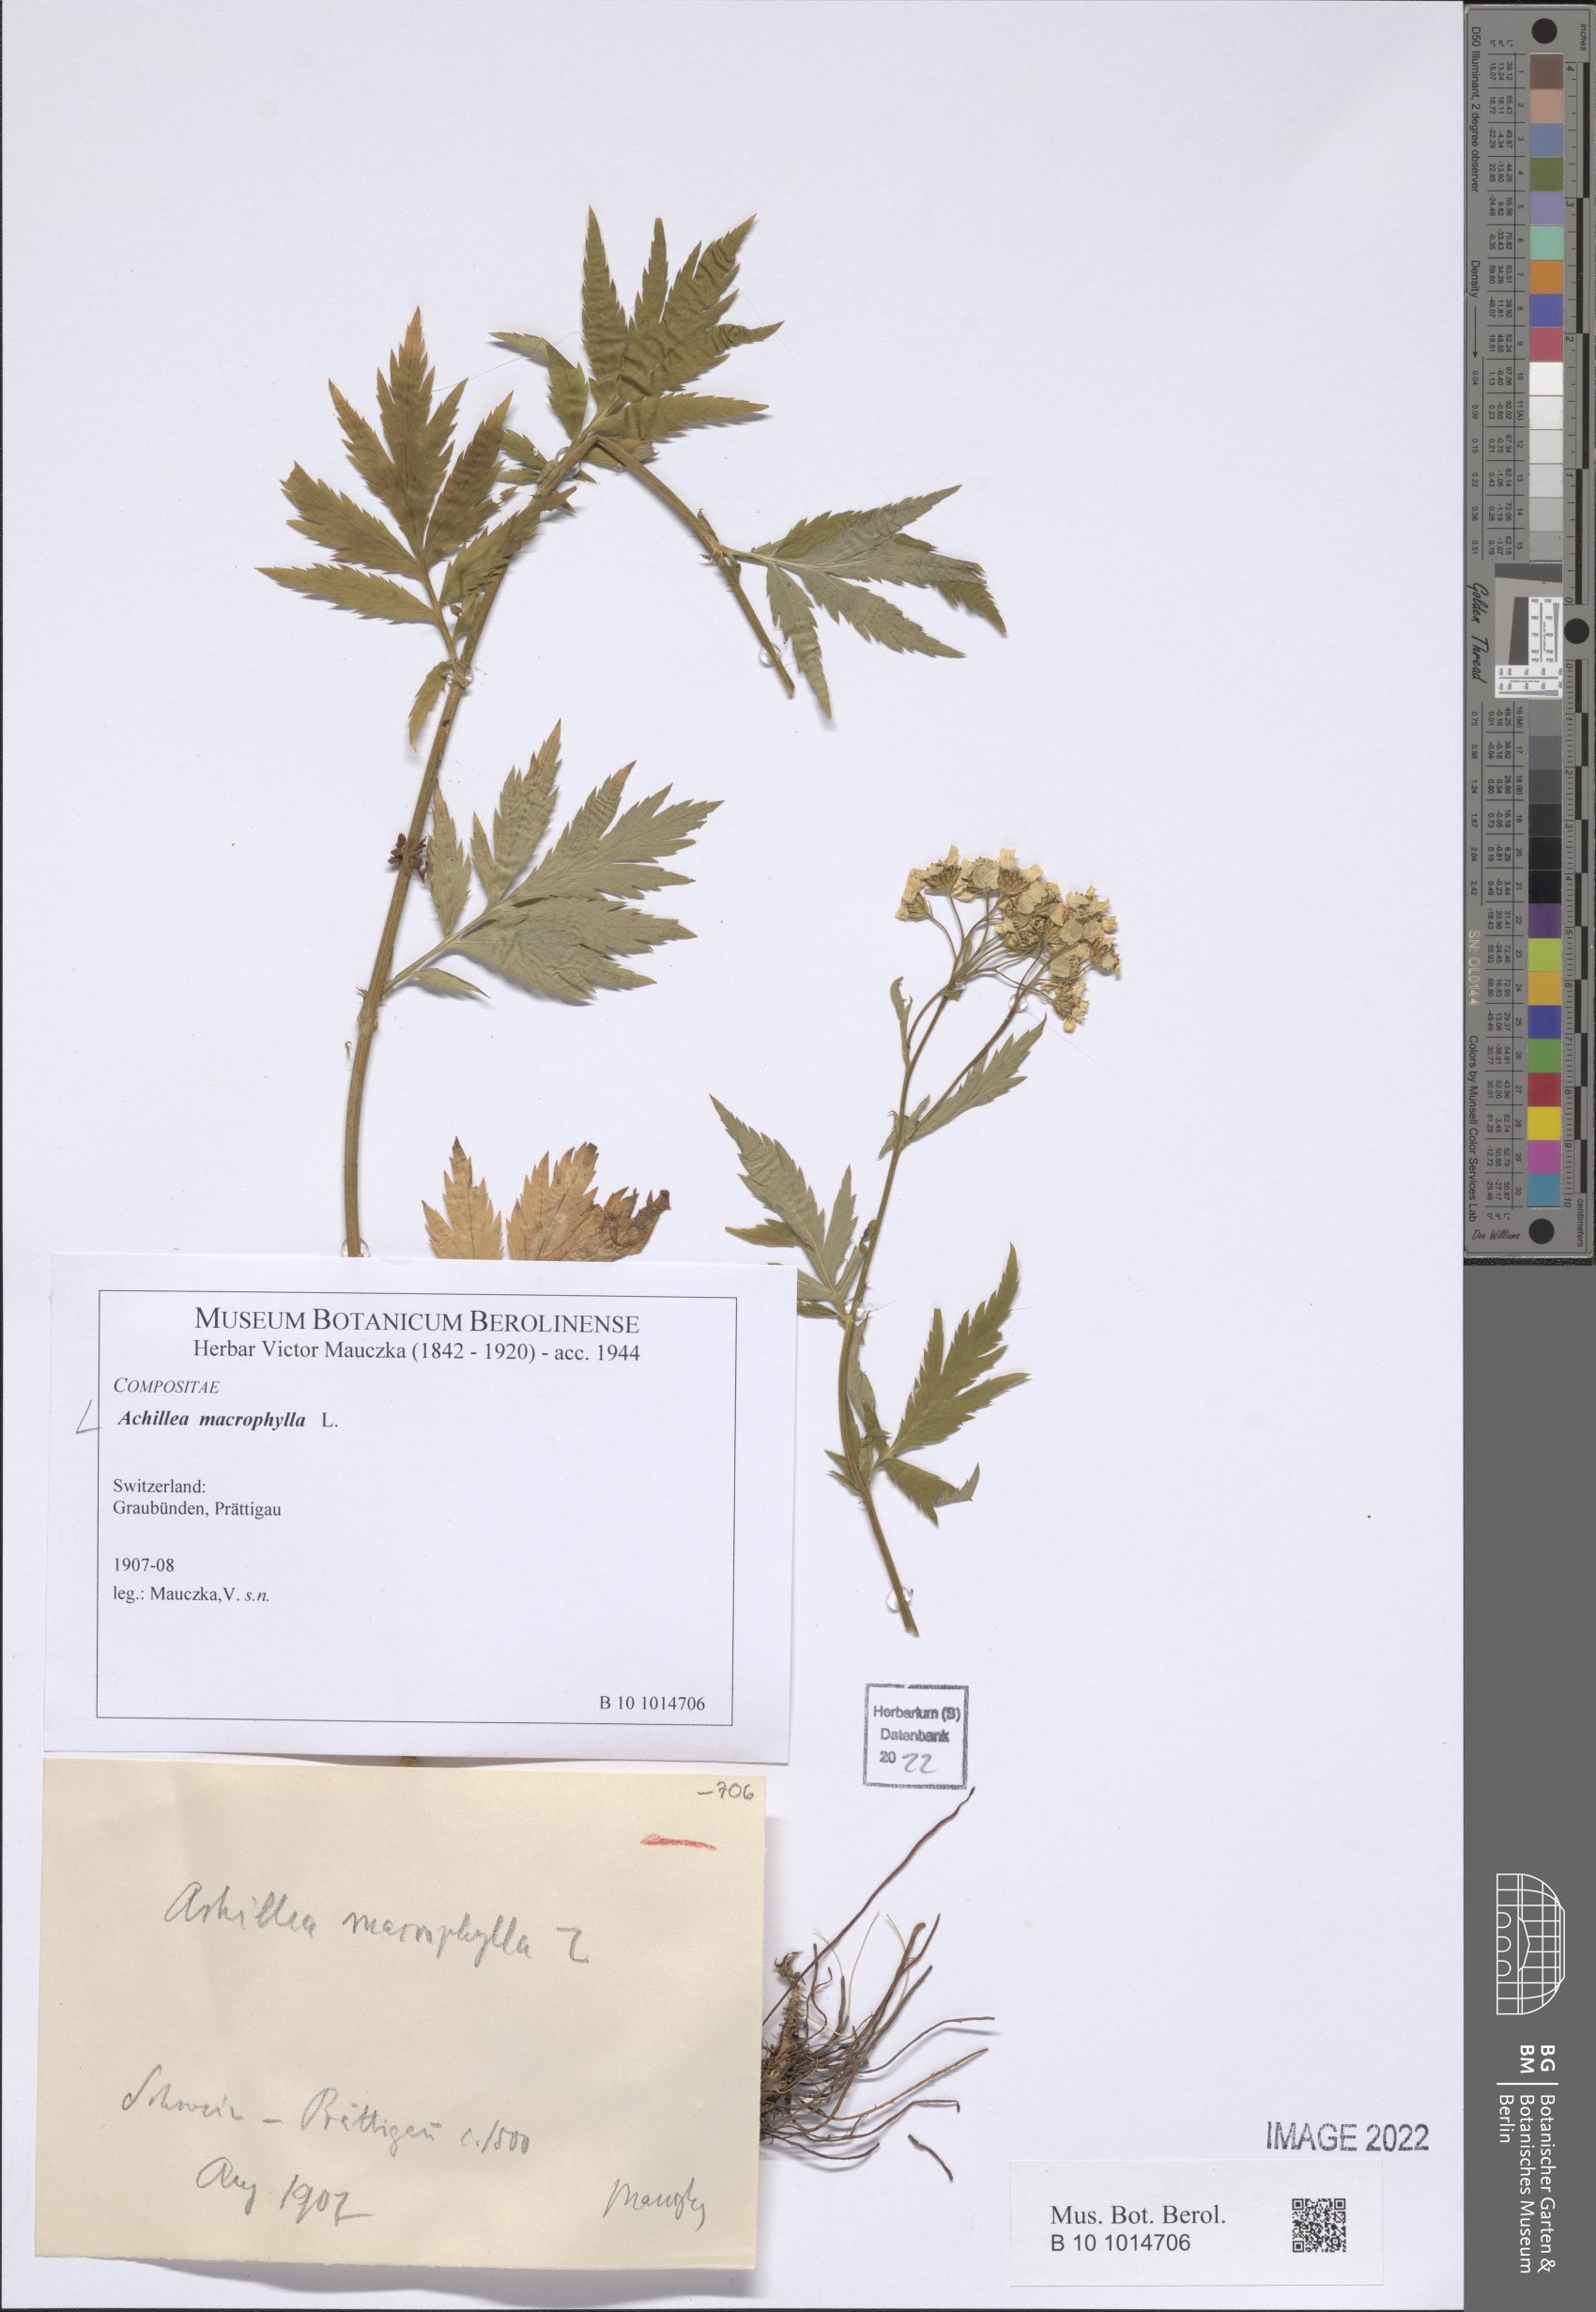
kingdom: Plantae
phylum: Tracheophyta
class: Magnoliopsida
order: Asterales
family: Asteraceae
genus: Achillea
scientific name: Achillea macrophylla
